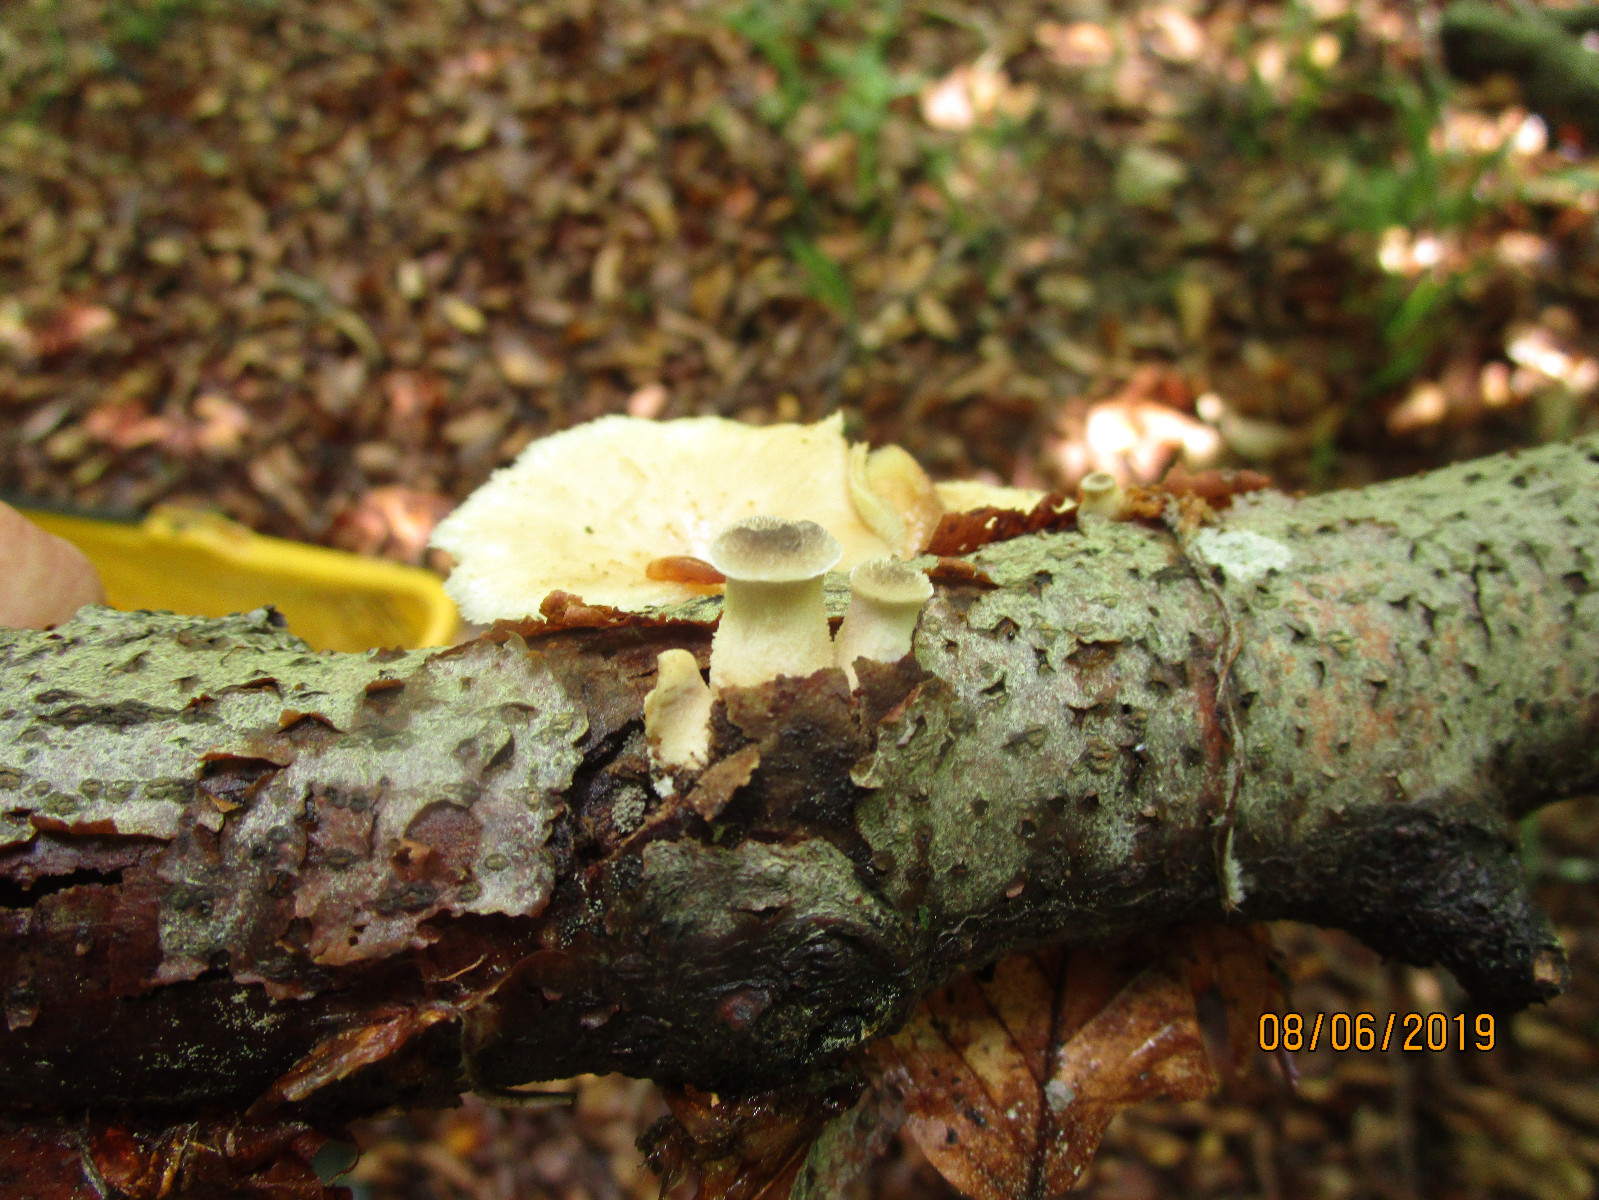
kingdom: Fungi
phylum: Basidiomycota
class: Agaricomycetes
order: Polyporales
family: Polyporaceae
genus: Polyporus
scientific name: Polyporus tuberaster
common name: knoldet stilkporesvamp
